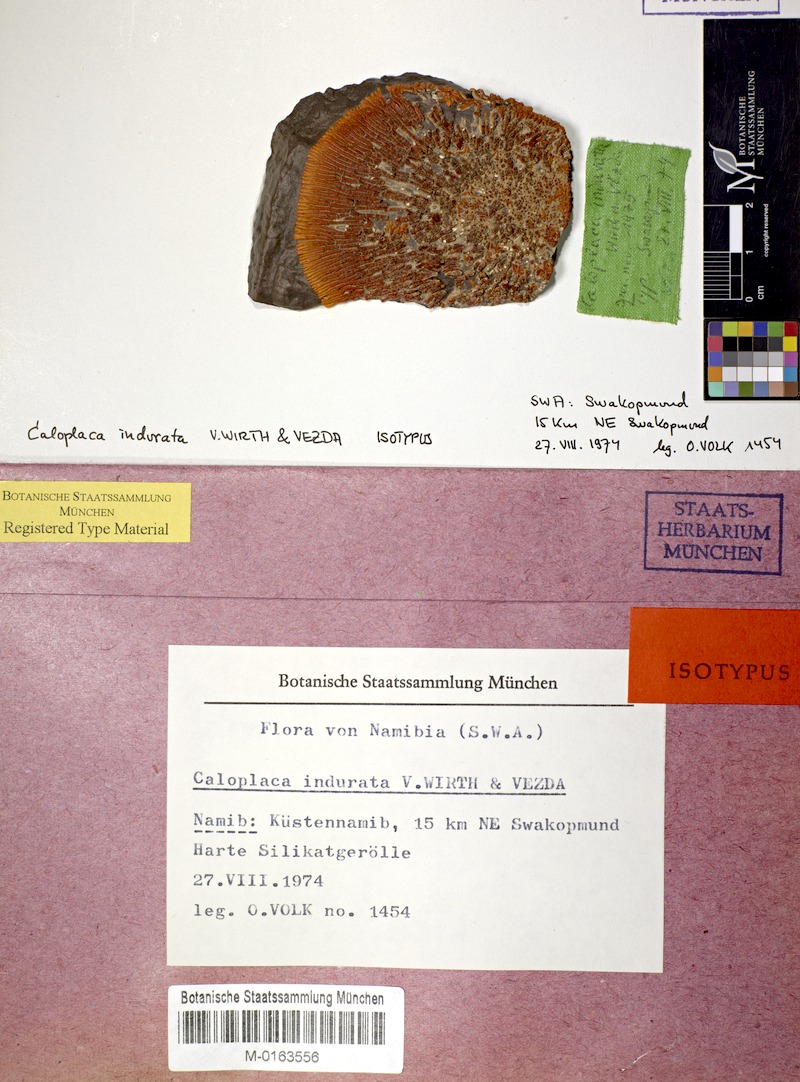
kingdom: Fungi
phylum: Ascomycota
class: Lecanoromycetes
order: Teloschistales
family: Teloschistaceae
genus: Caloplaca
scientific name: Caloplaca
